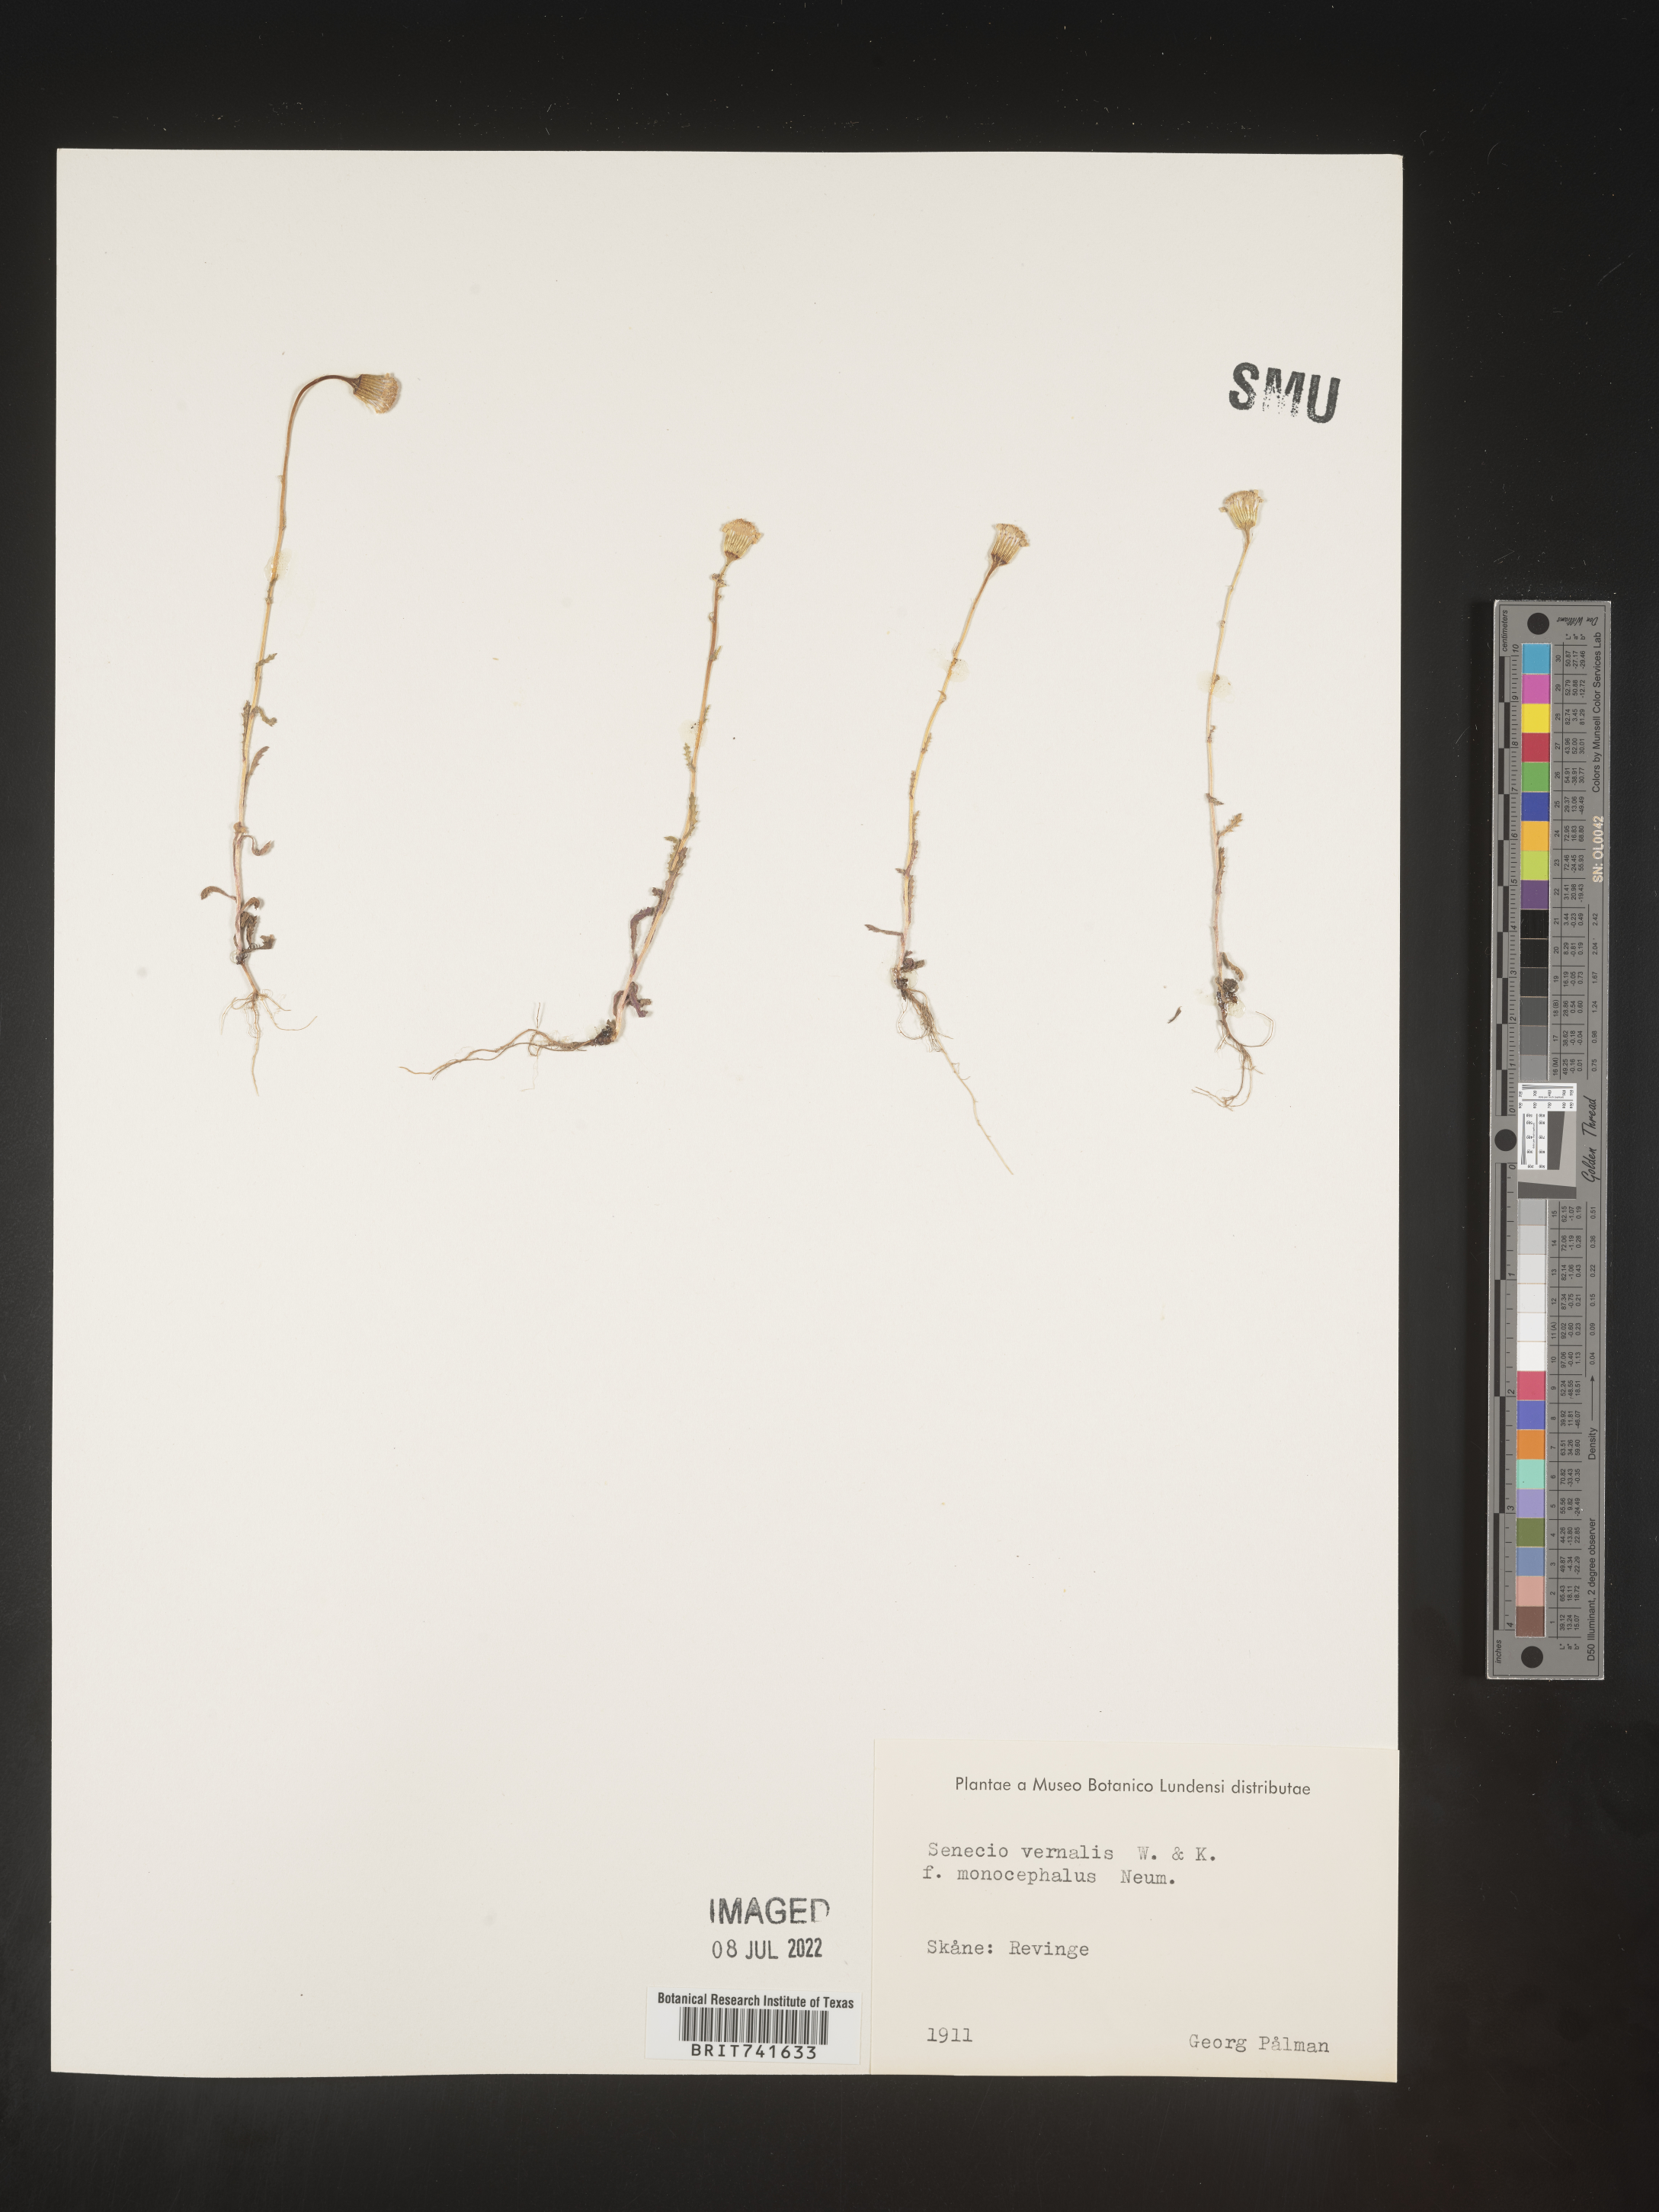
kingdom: Plantae
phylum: Tracheophyta
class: Magnoliopsida
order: Asterales
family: Asteraceae
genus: Senecio
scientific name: Senecio vernalis
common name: Eastern groundsel
